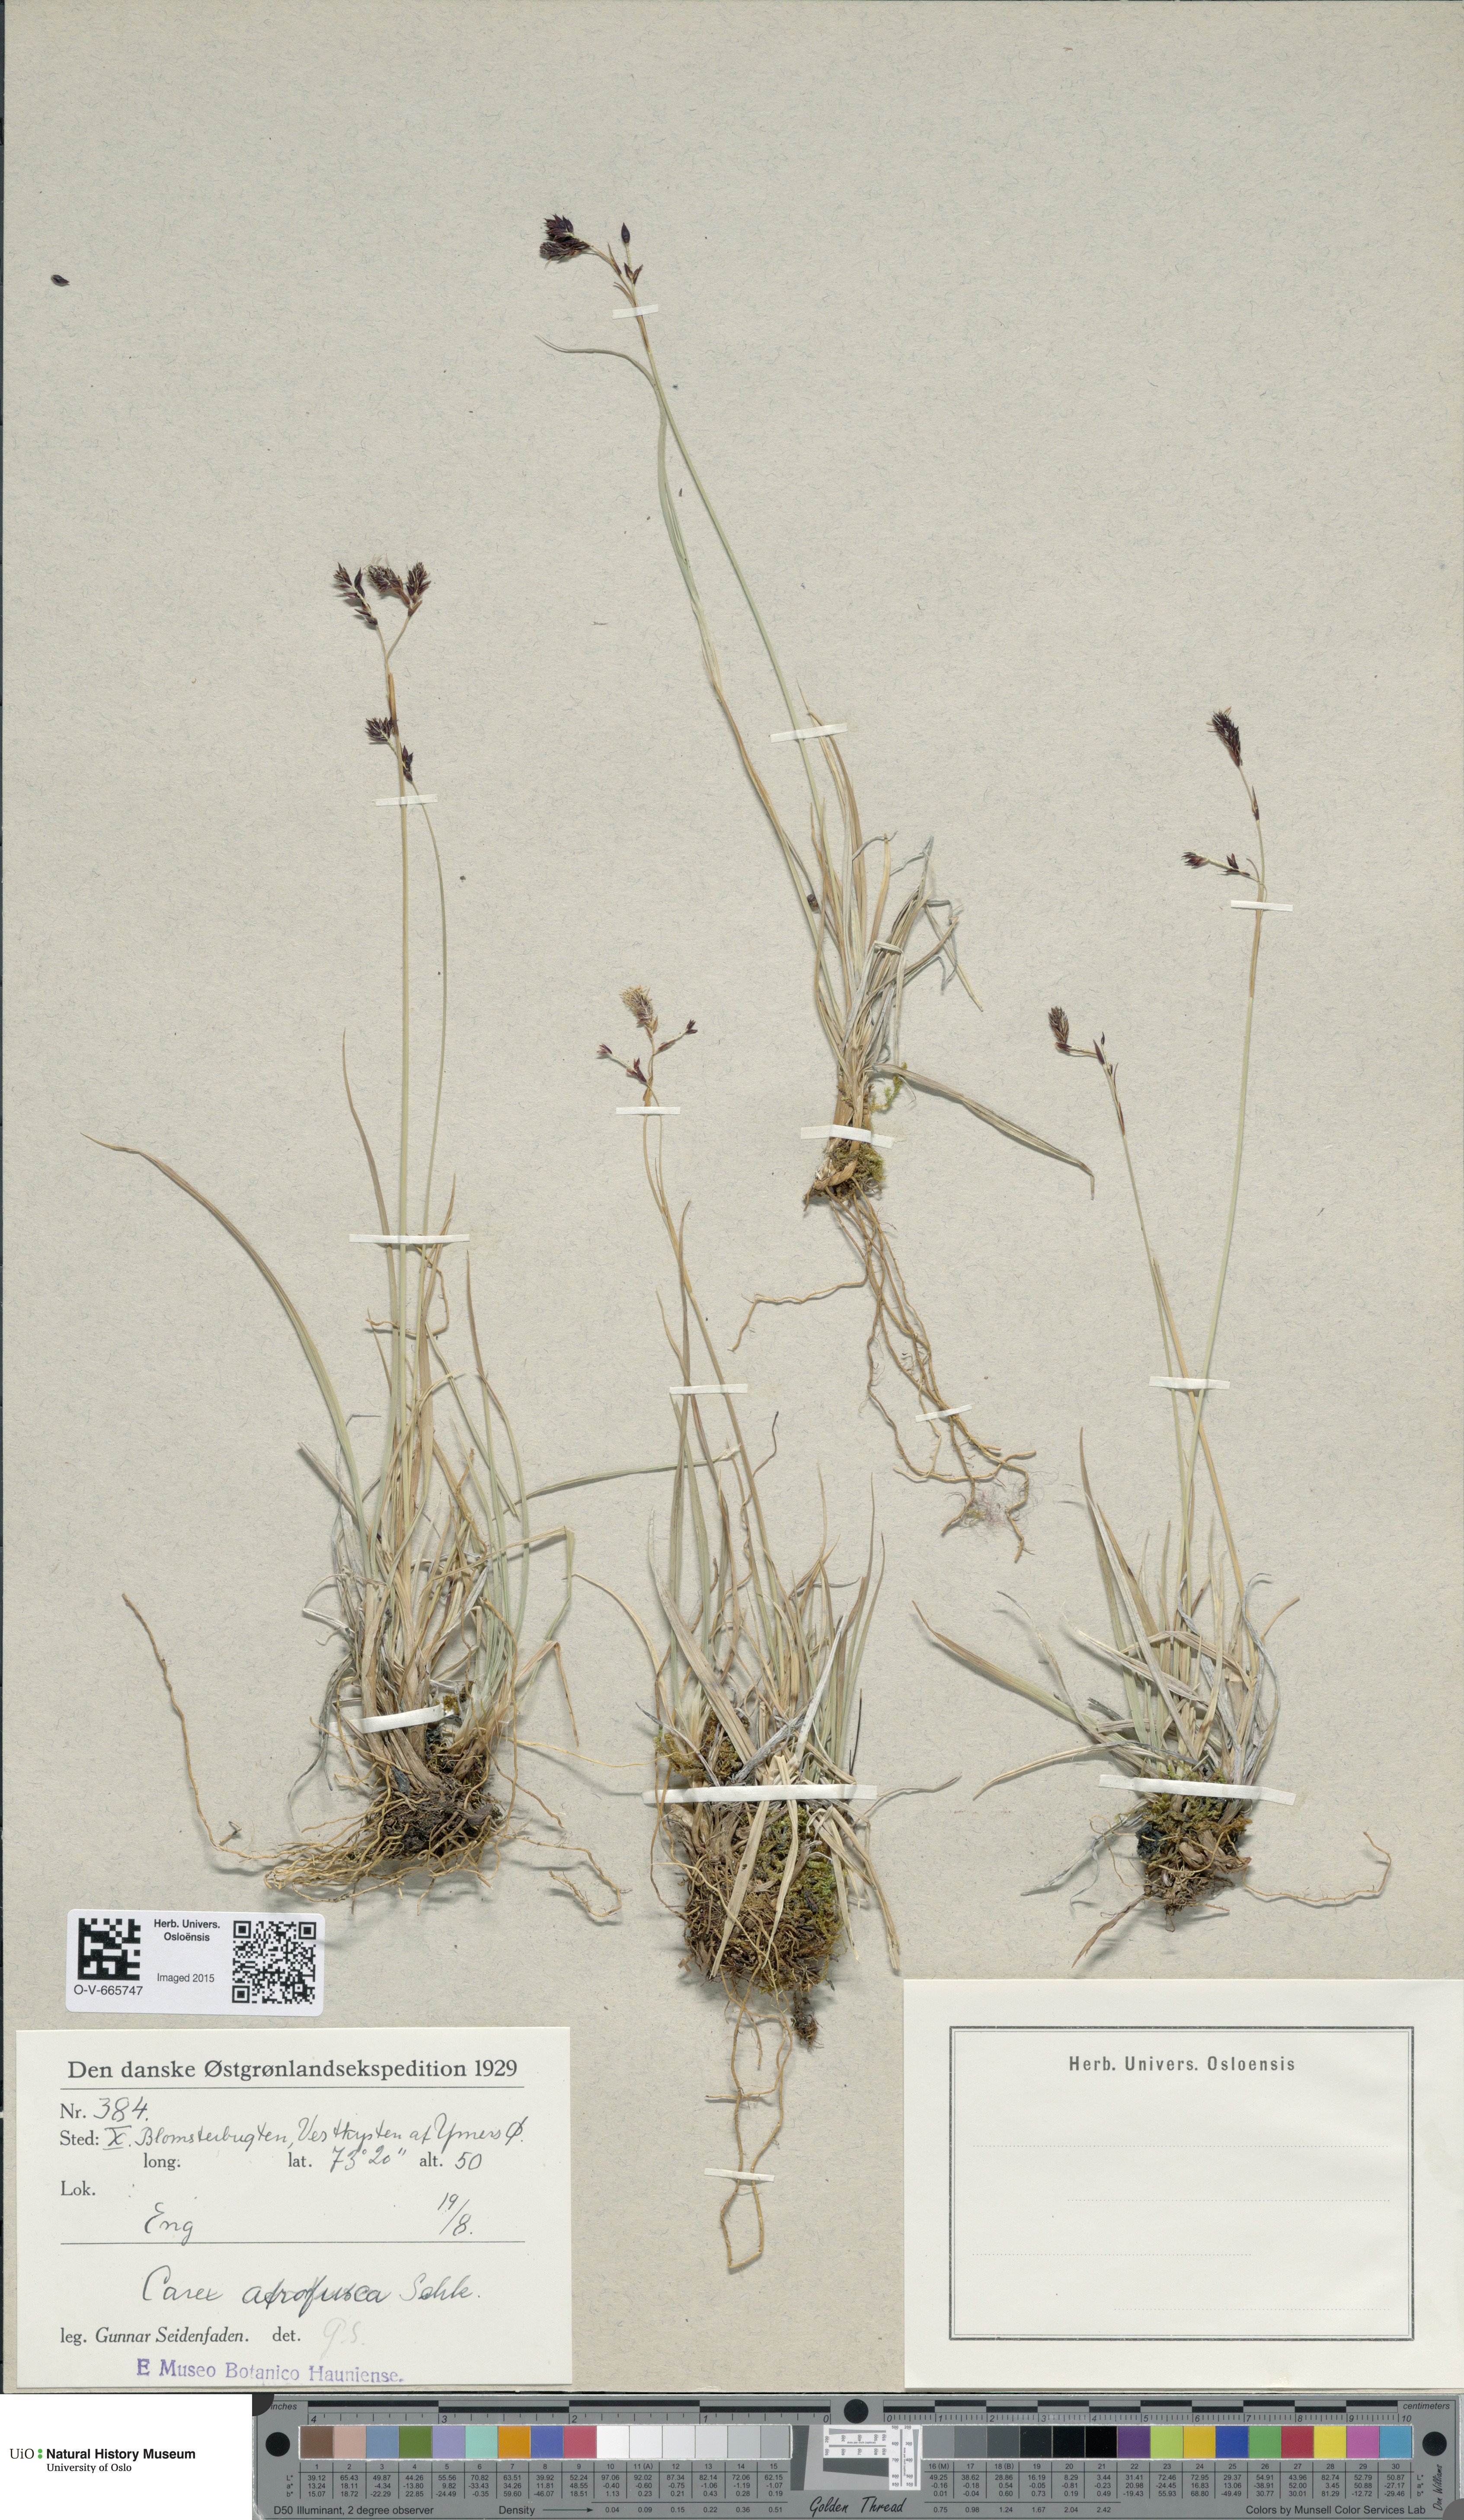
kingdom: Plantae
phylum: Tracheophyta
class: Liliopsida
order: Poales
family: Cyperaceae
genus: Carex
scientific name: Carex atrofusca
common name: Scorched alpine-sedge
